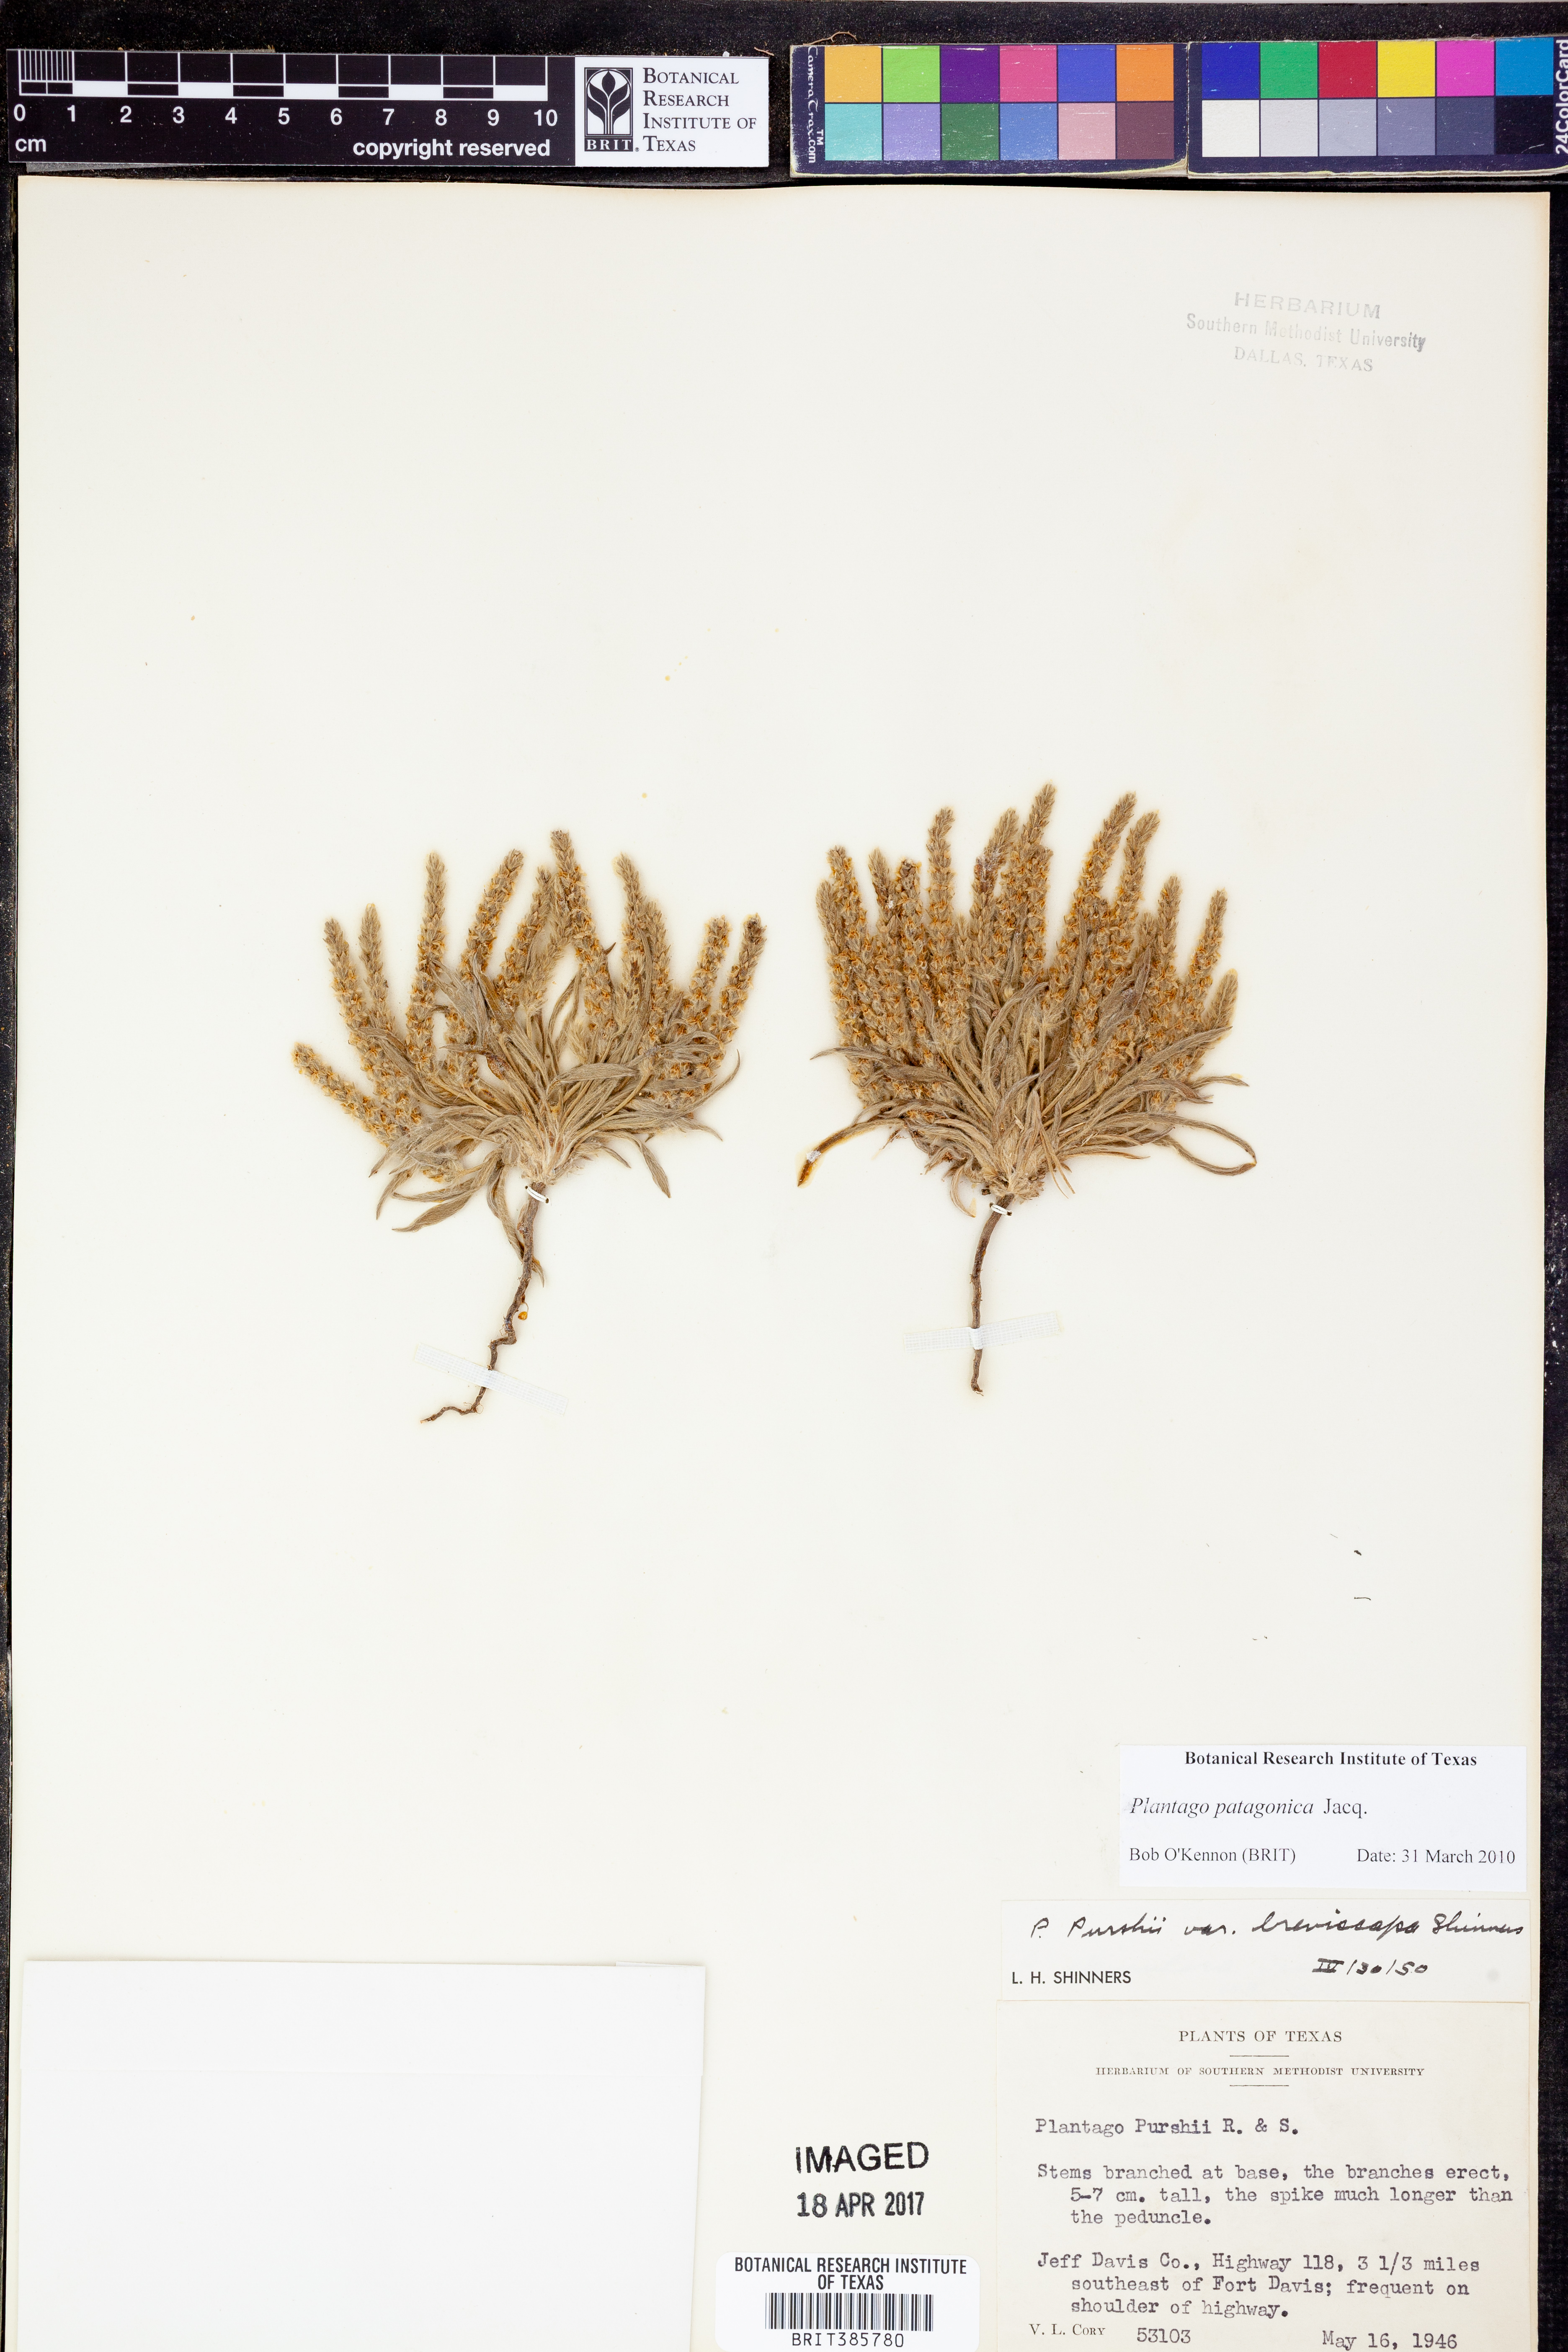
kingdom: Plantae
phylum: Tracheophyta
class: Magnoliopsida
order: Lamiales
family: Plantaginaceae
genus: Plantago
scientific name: Plantago patagonica
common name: Patagonia indian-wheat
